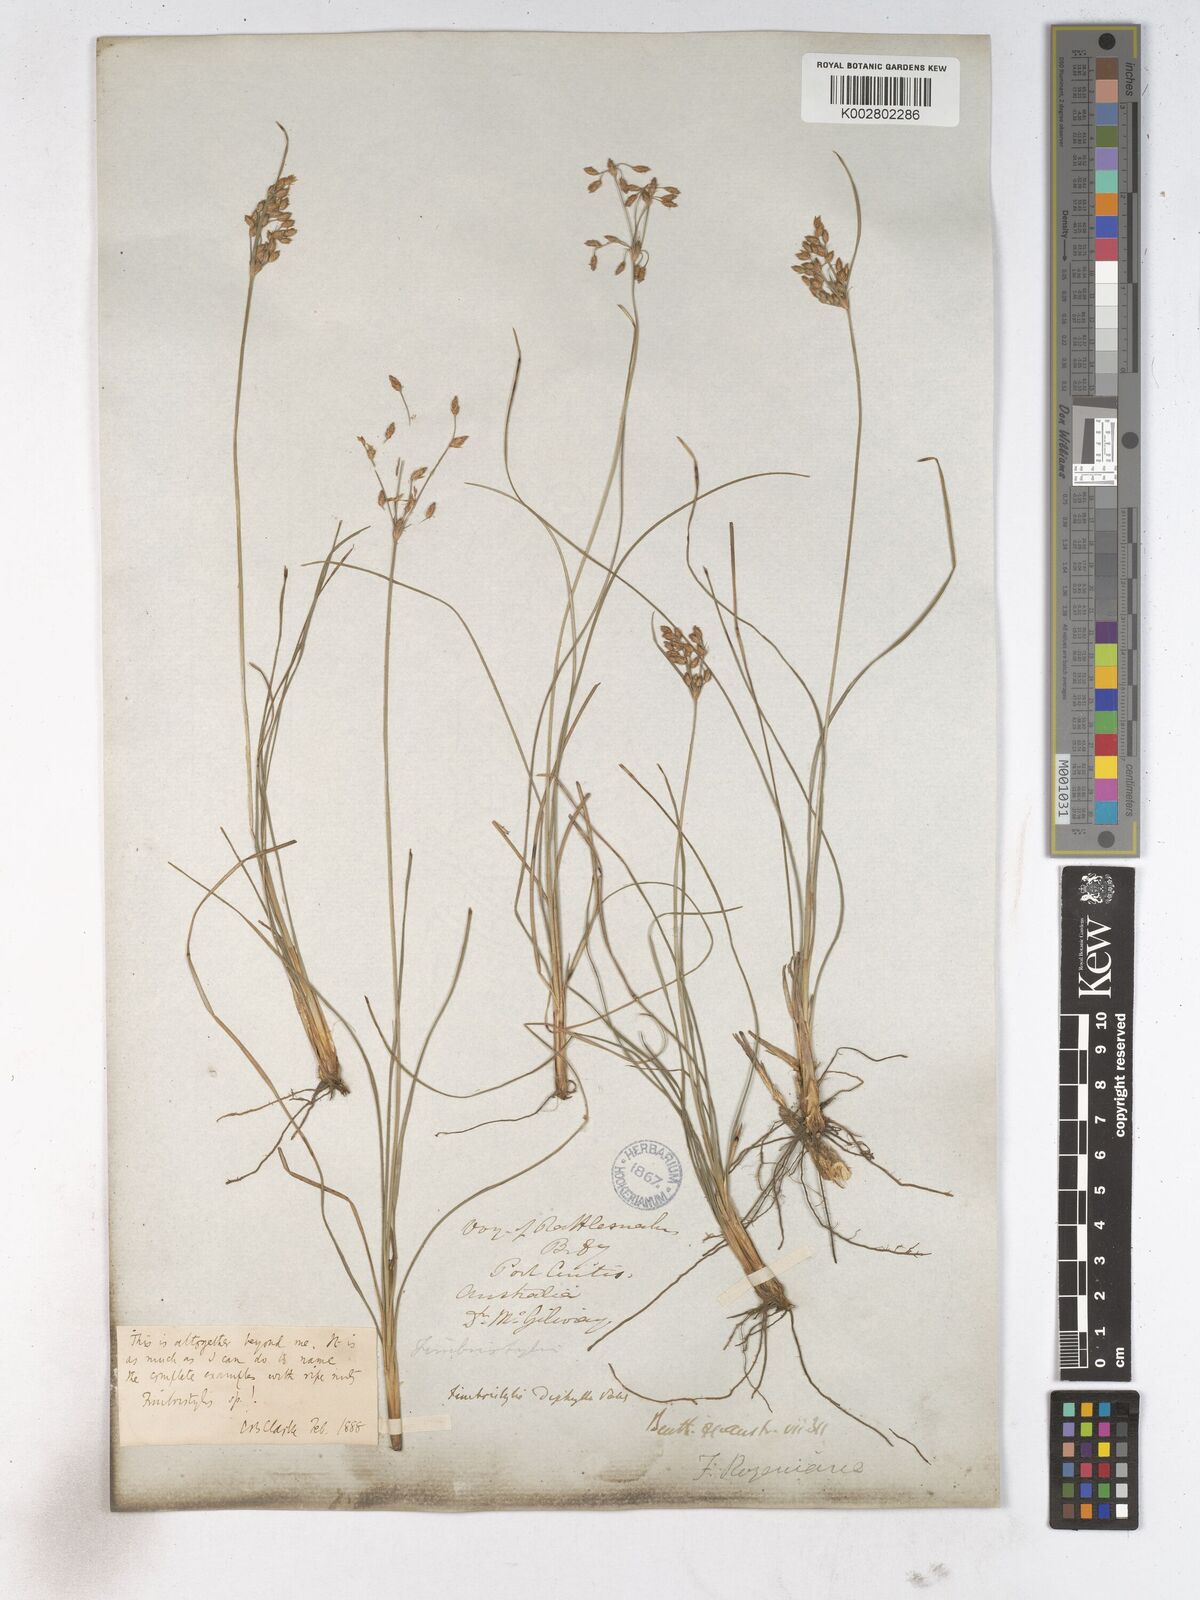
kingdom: Plantae
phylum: Tracheophyta
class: Liliopsida
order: Poales
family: Cyperaceae
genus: Fimbristylis
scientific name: Fimbristylis dichotoma
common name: Forked fimbry
